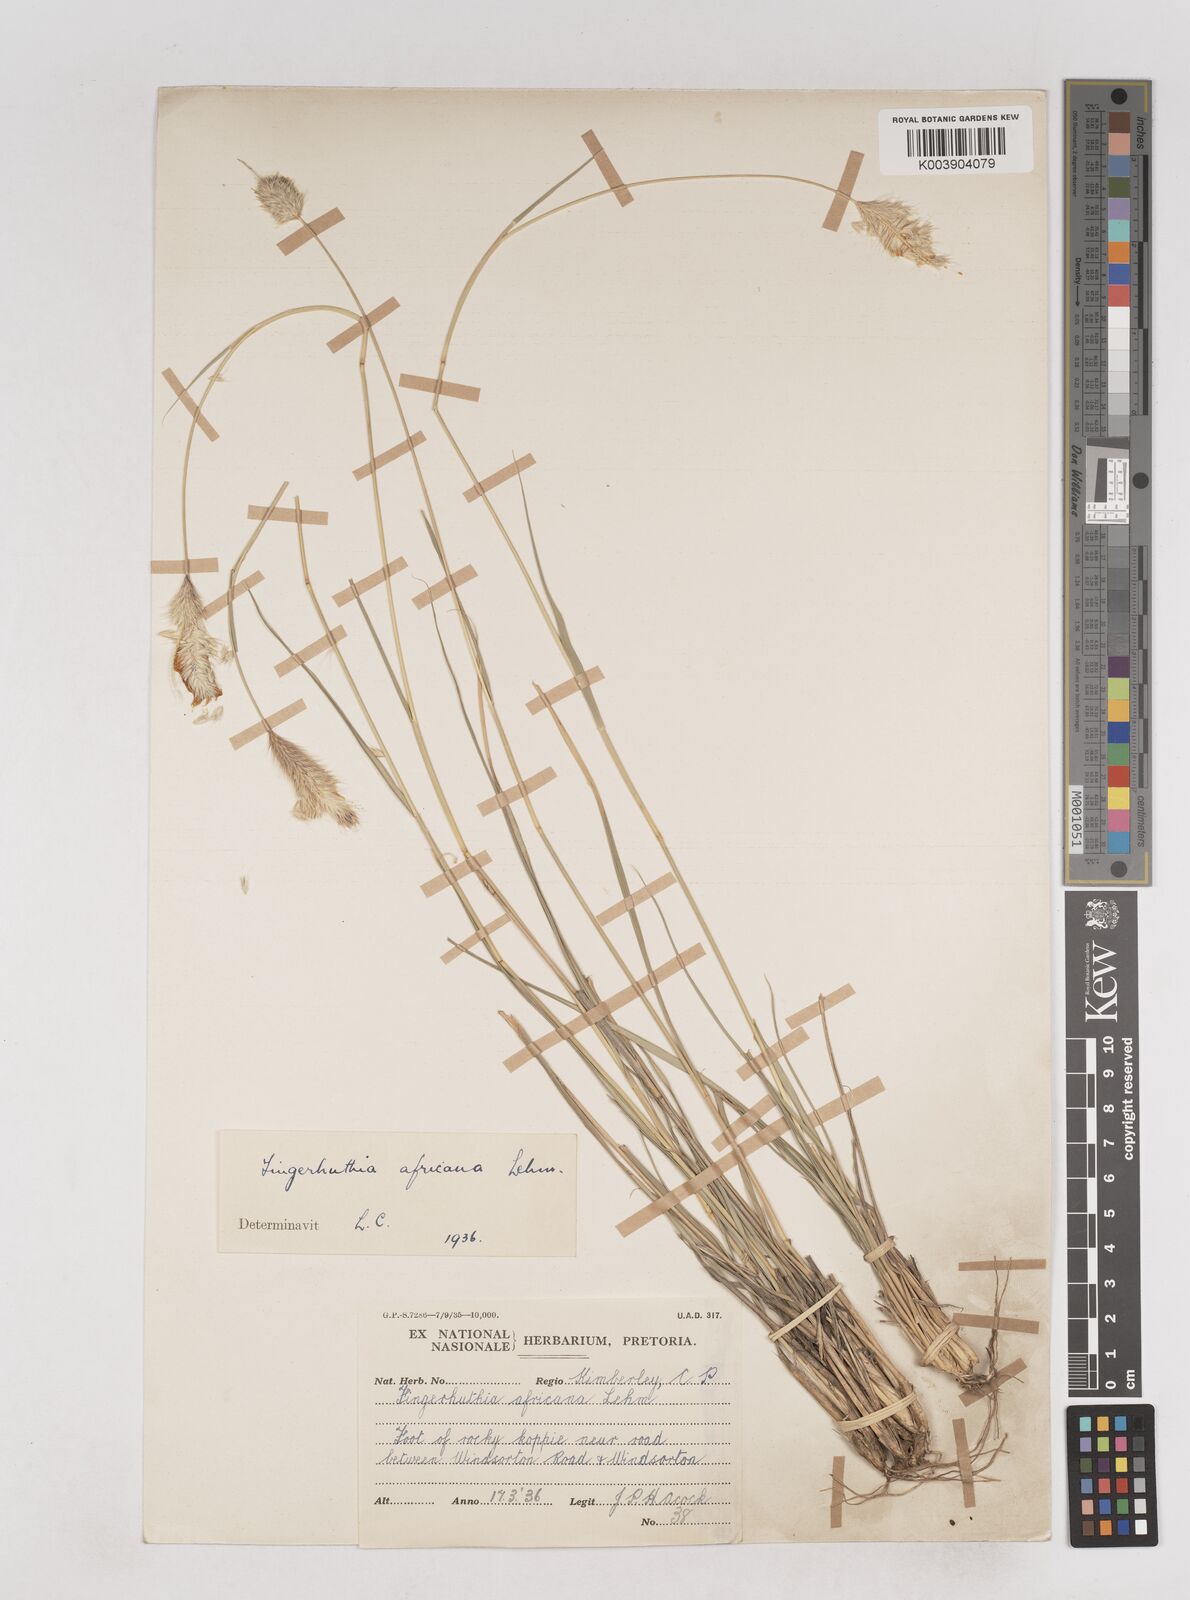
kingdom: Plantae
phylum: Tracheophyta
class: Liliopsida
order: Poales
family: Poaceae
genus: Fingerhuthia
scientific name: Fingerhuthia africana
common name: Zulu fescue
